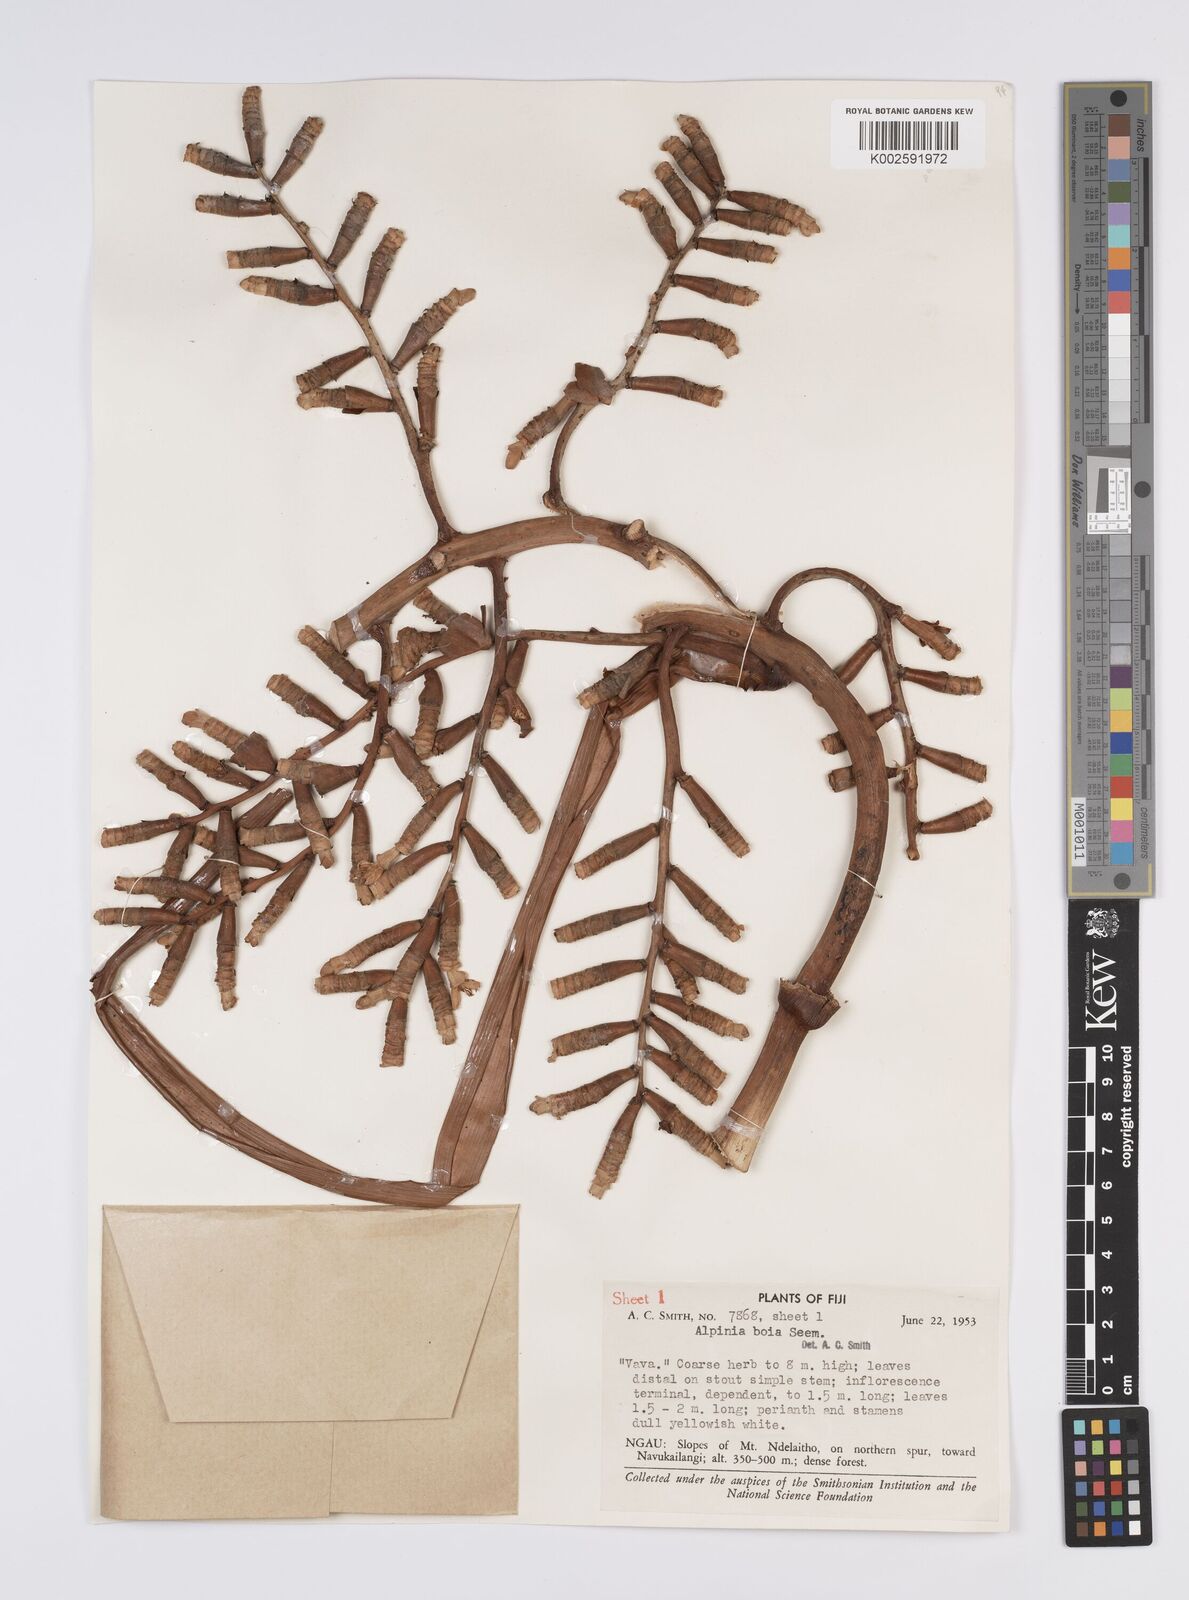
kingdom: Plantae
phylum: Tracheophyta
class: Liliopsida
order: Zingiberales
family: Zingiberaceae
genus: Alpinia
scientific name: Alpinia boia
